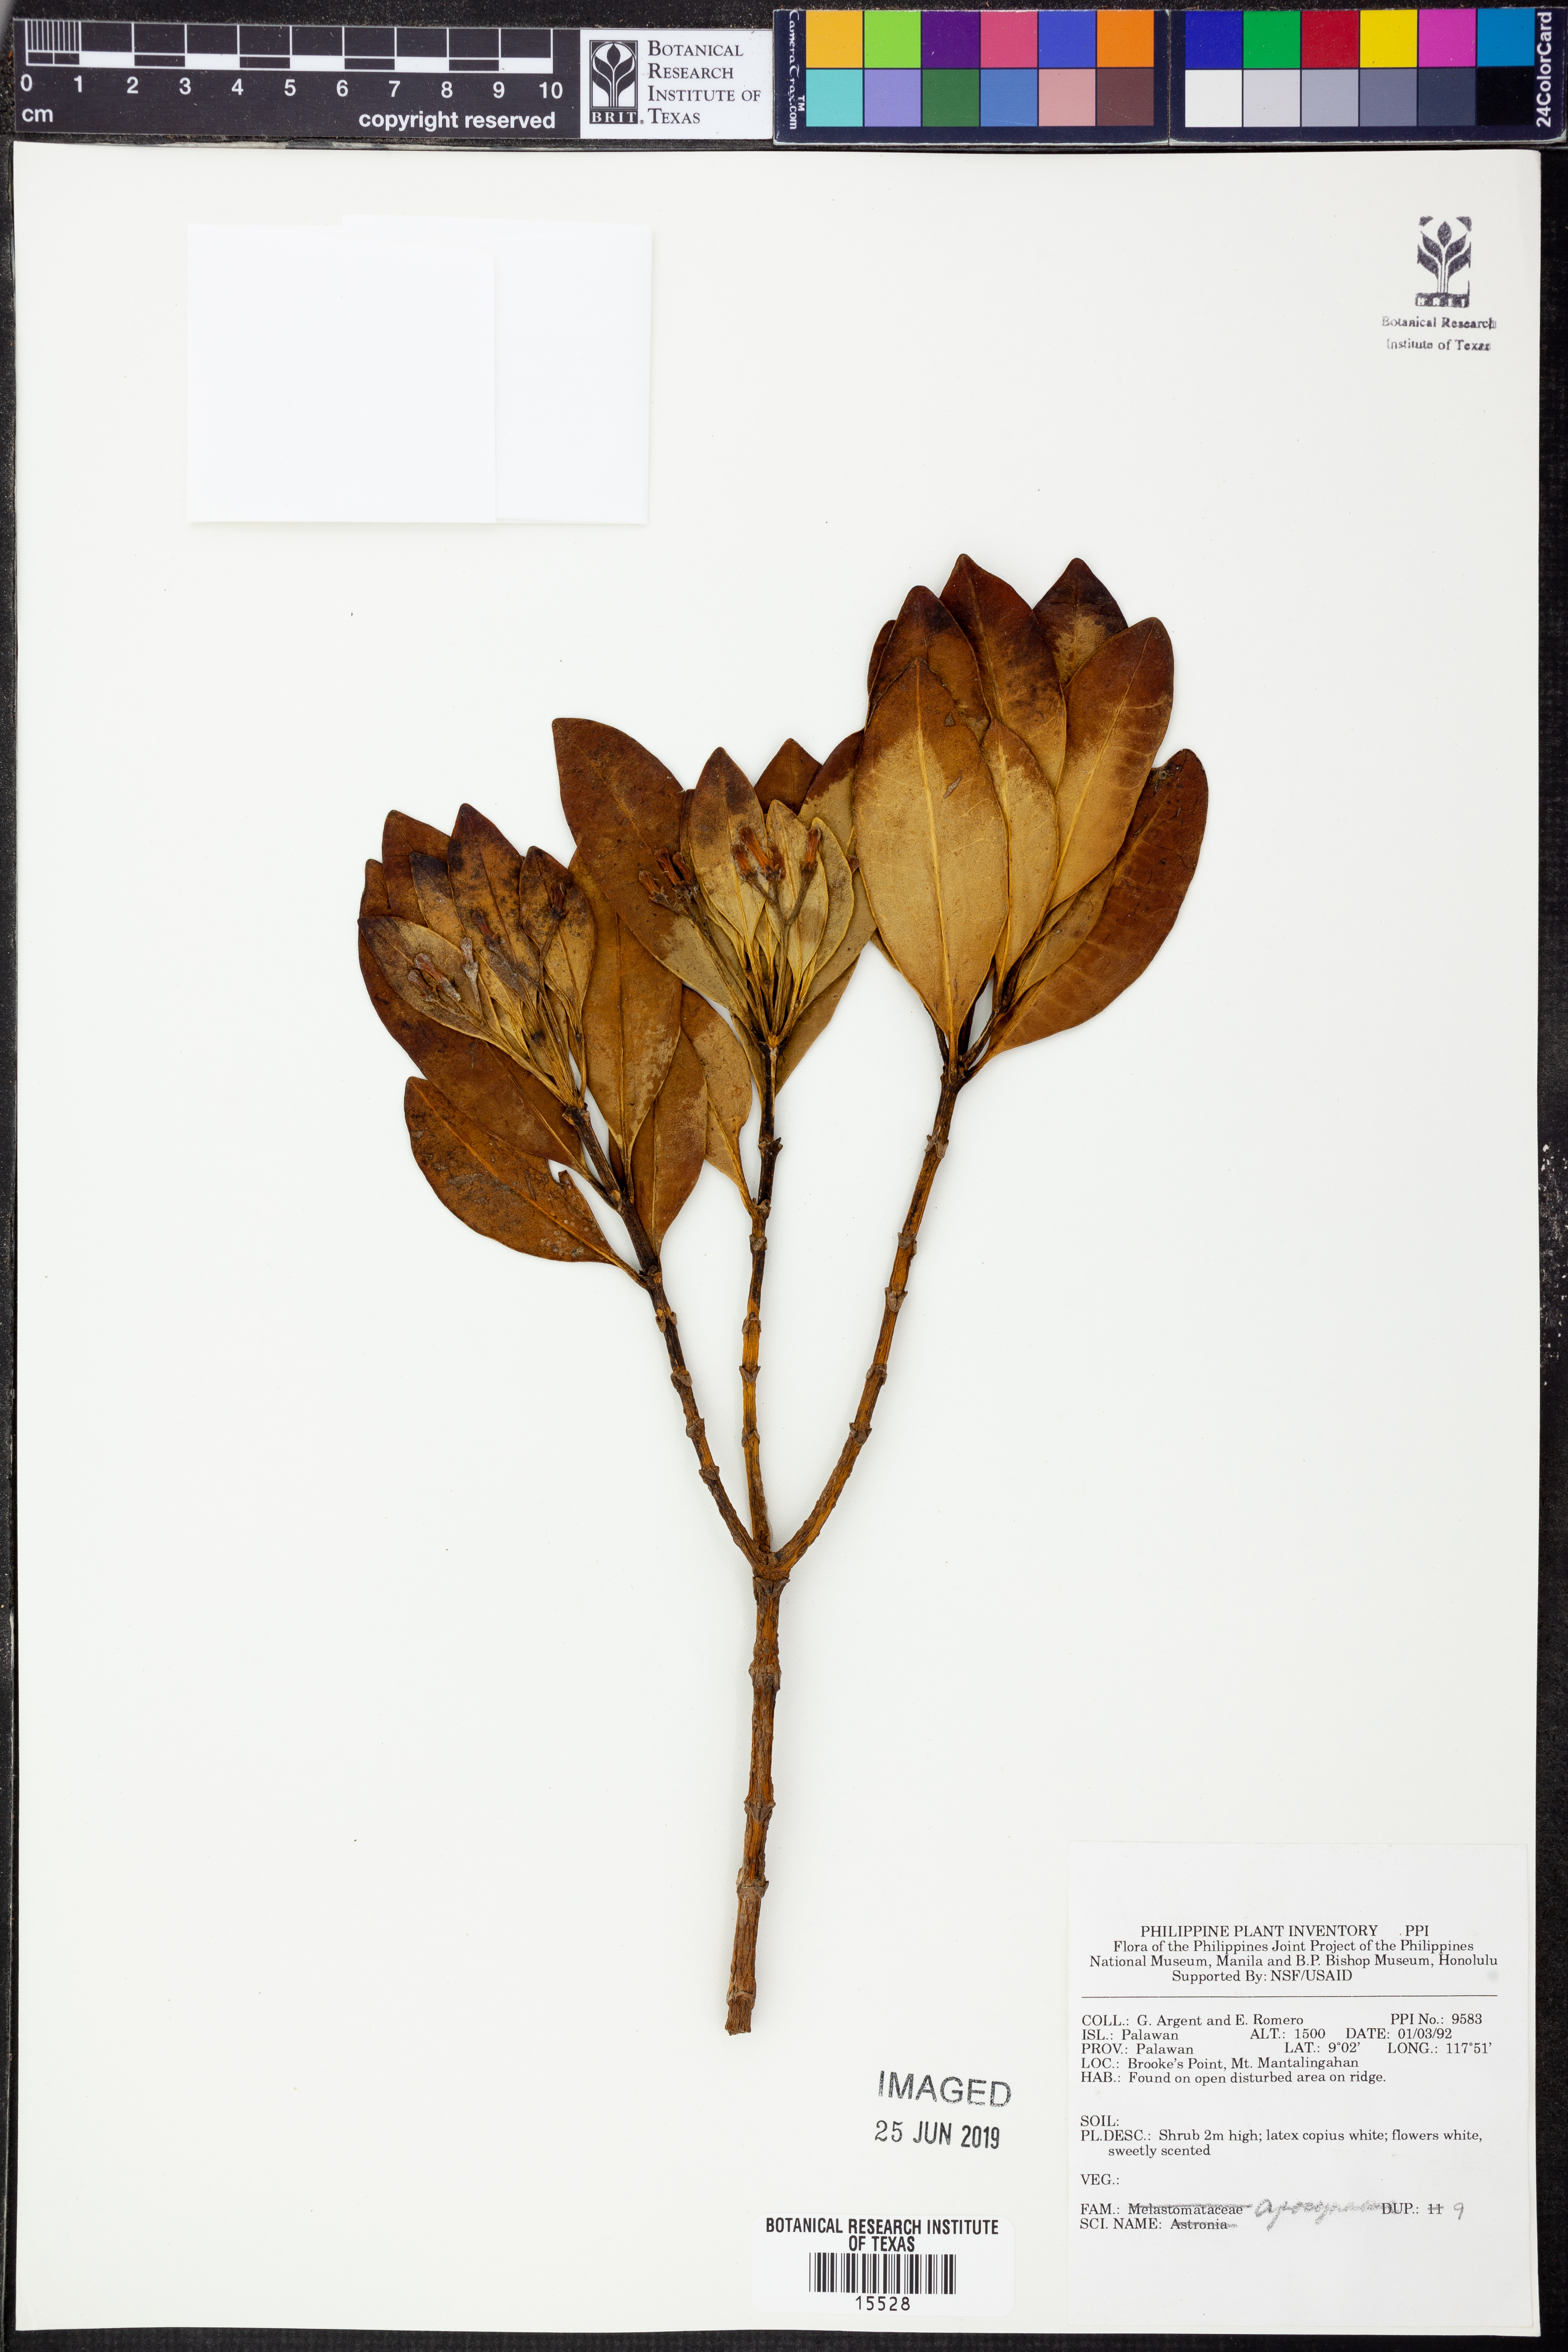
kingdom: Plantae
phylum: Tracheophyta
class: Magnoliopsida
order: Gentianales
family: Apocynaceae
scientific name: Apocynaceae
